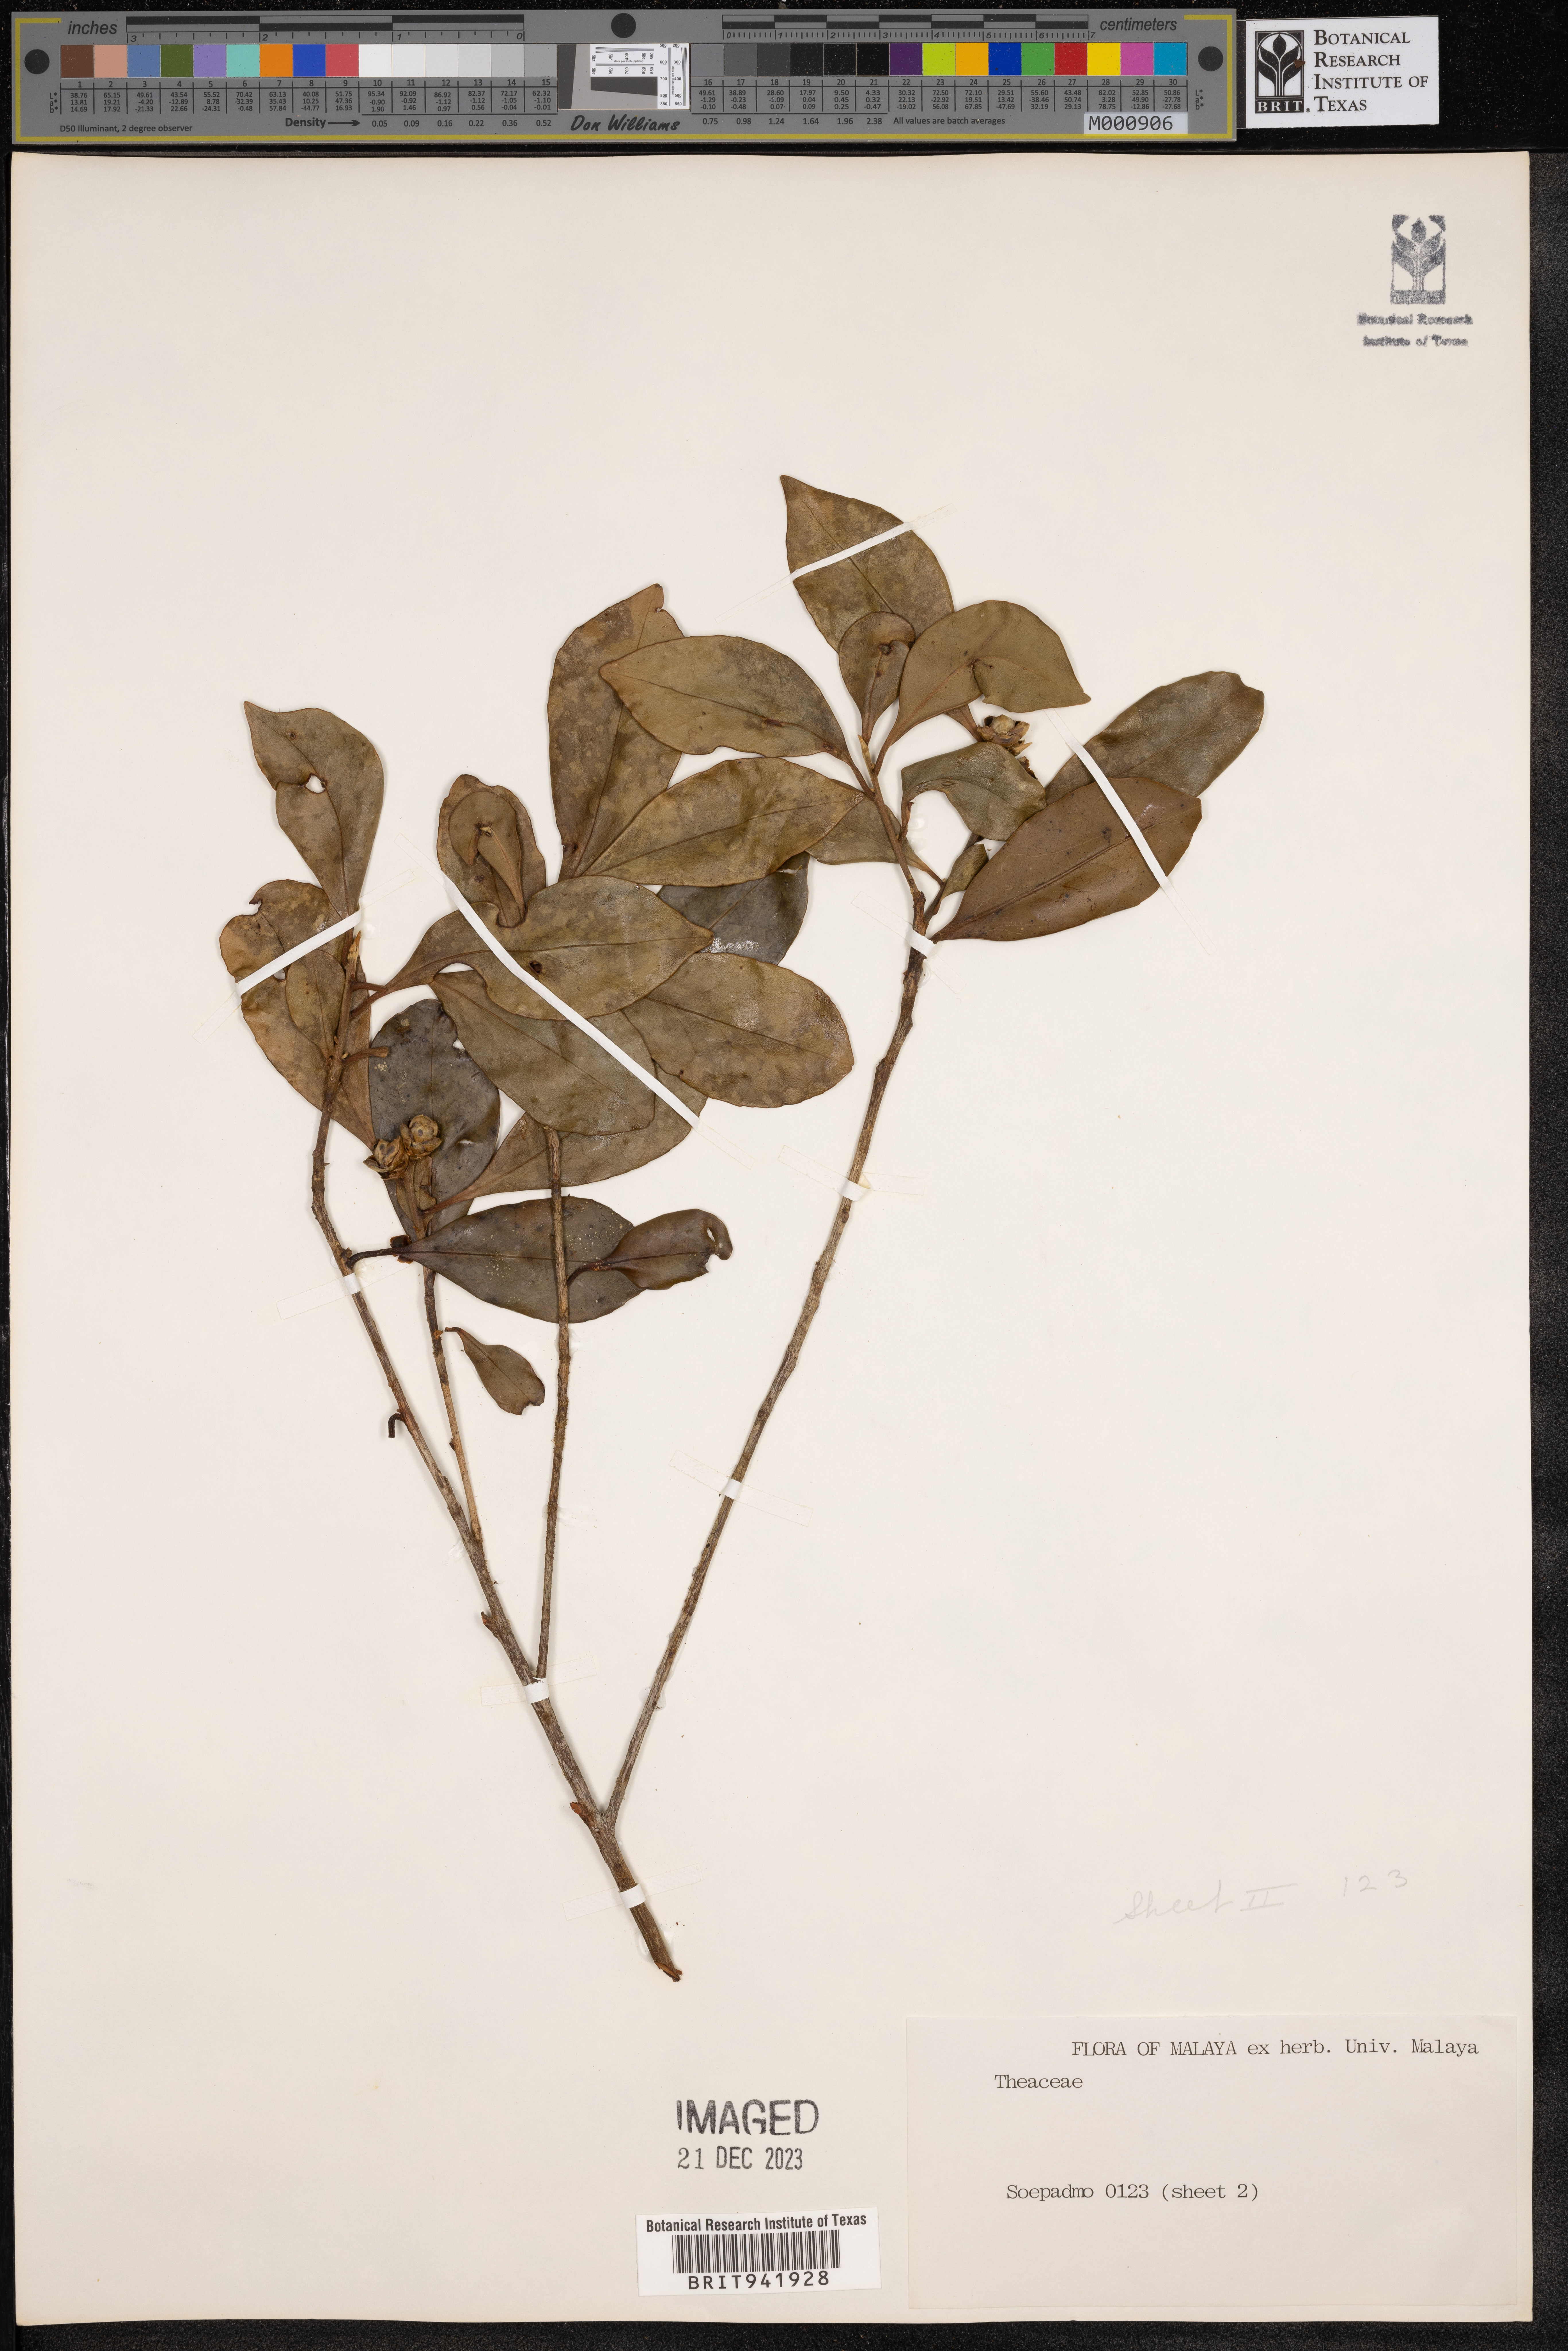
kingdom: Plantae
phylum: Tracheophyta
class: Magnoliopsida
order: Ericales
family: Theaceae
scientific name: Theaceae
